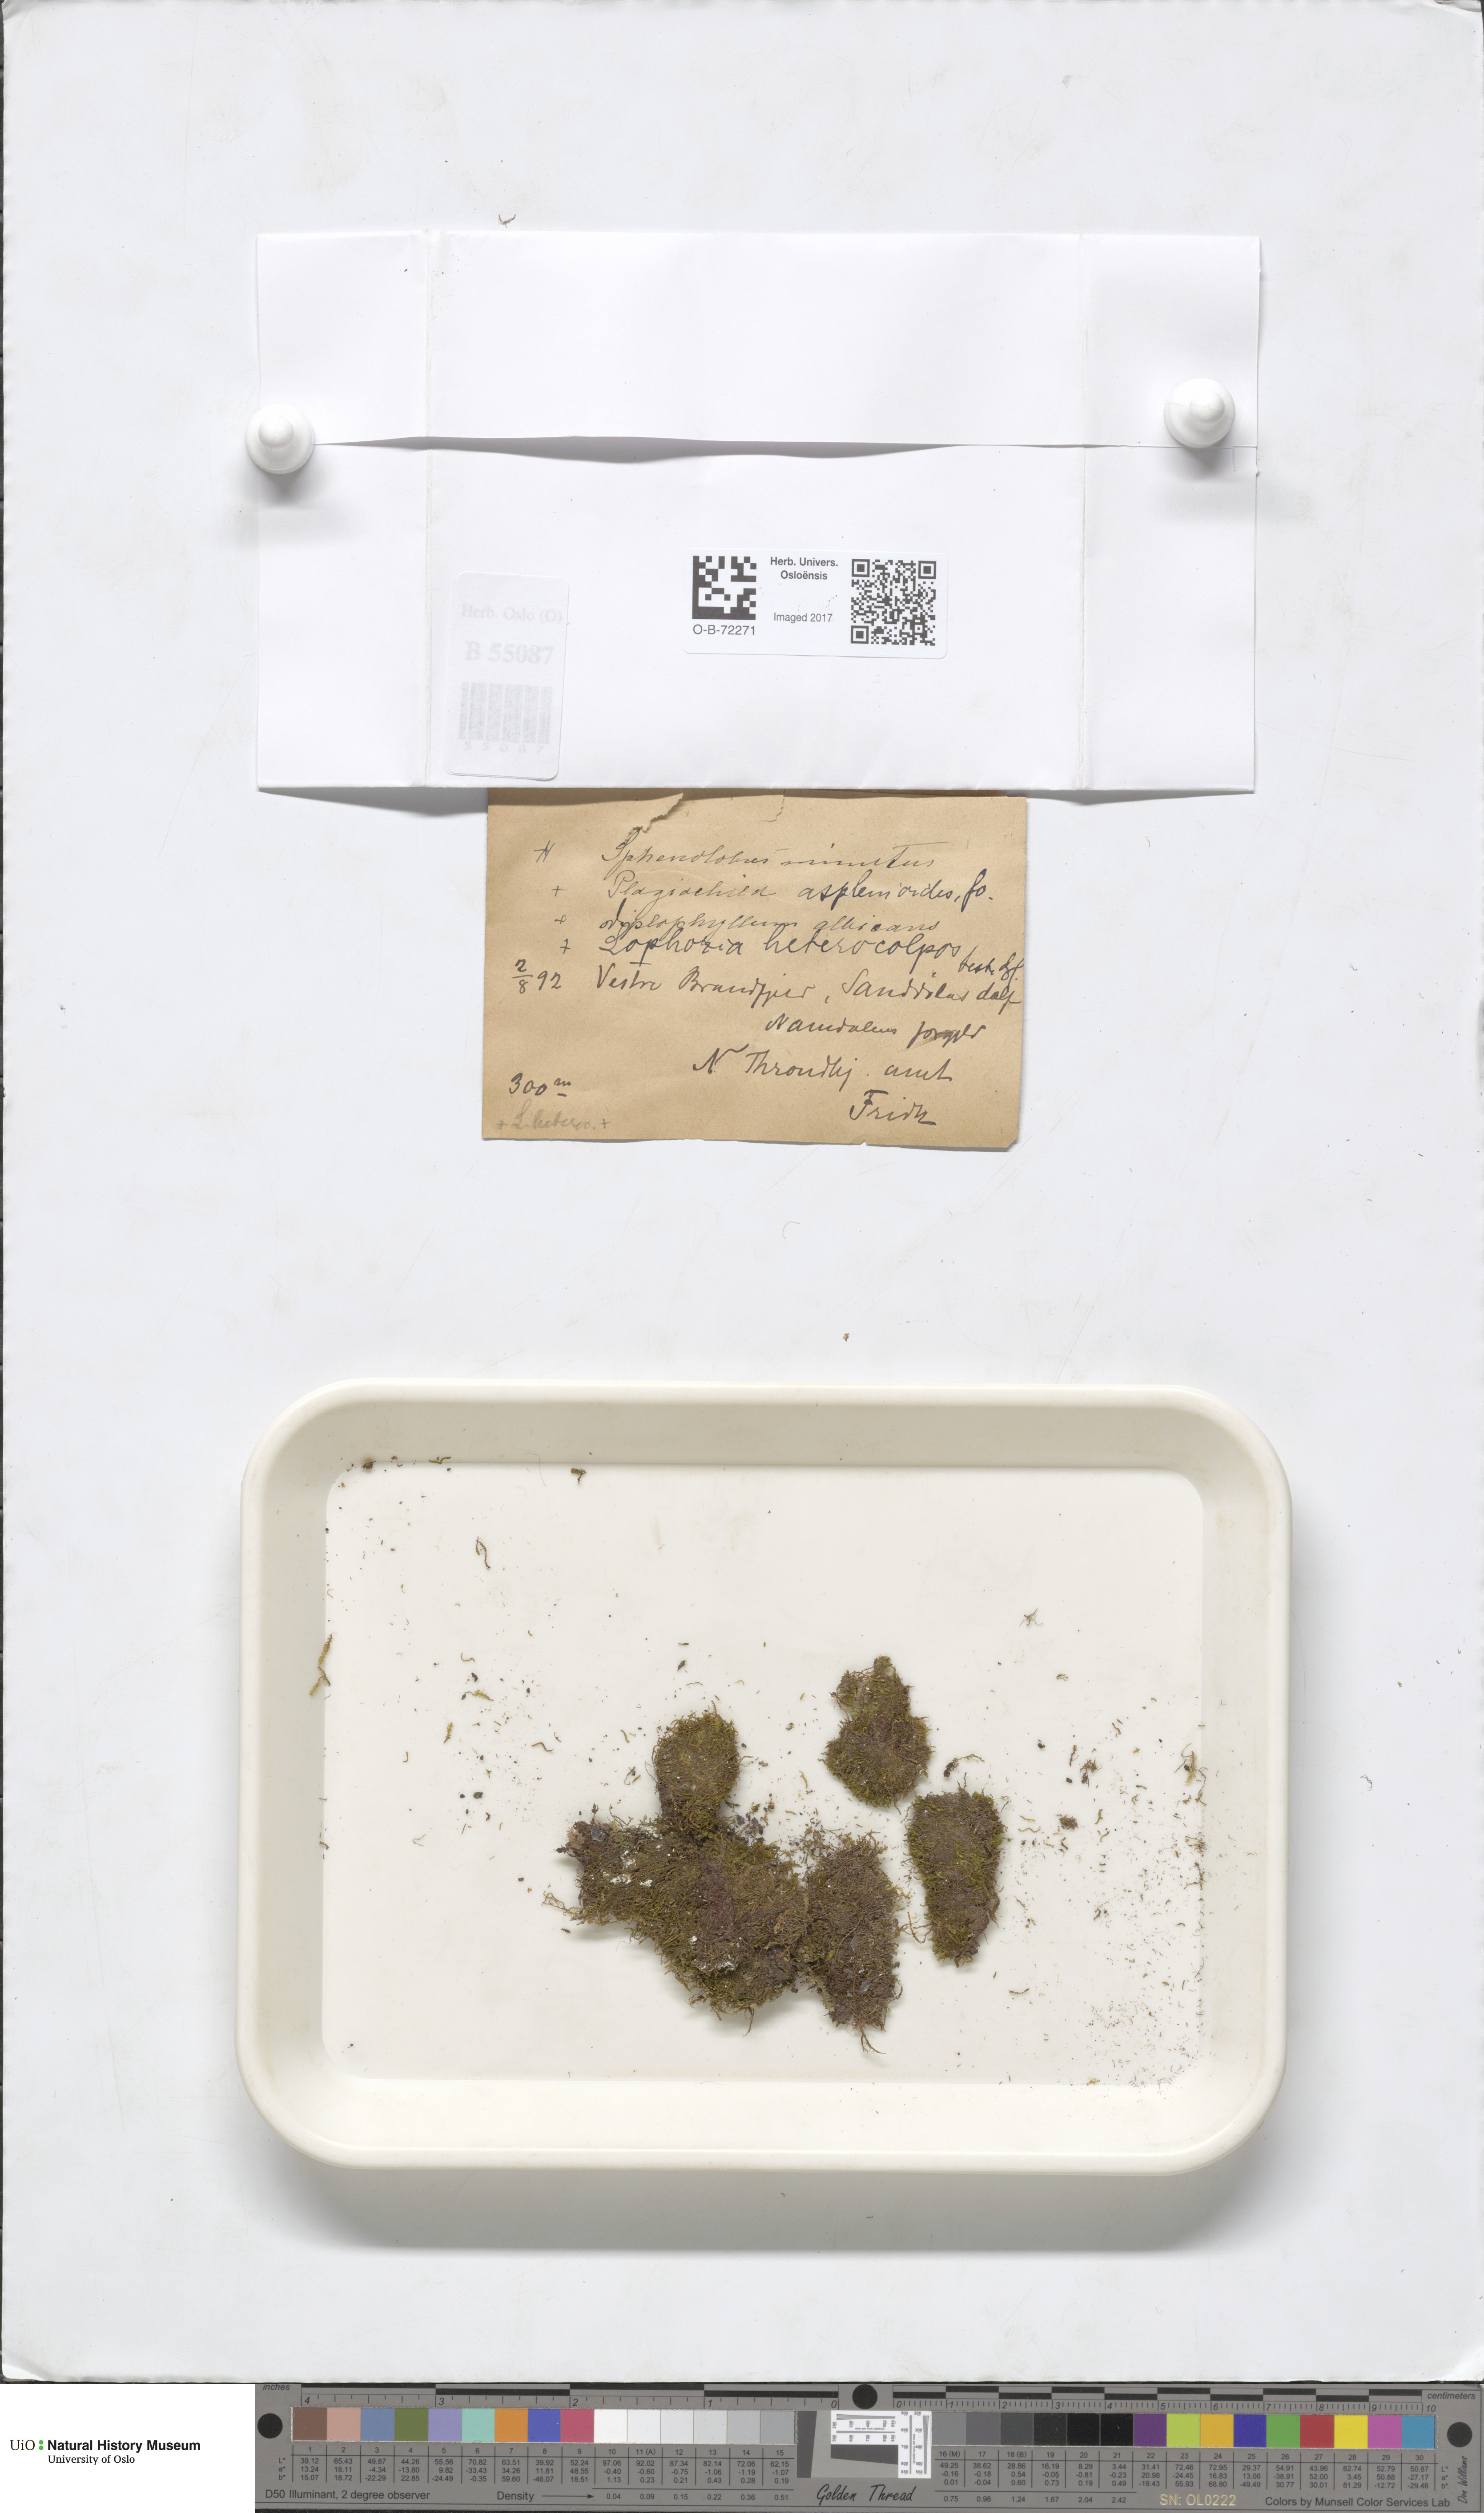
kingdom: Plantae
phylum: Marchantiophyta
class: Jungermanniopsida
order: Jungermanniales
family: Scapaniaceae
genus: Diplophyllum
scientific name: Diplophyllum albicans
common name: White earwort
